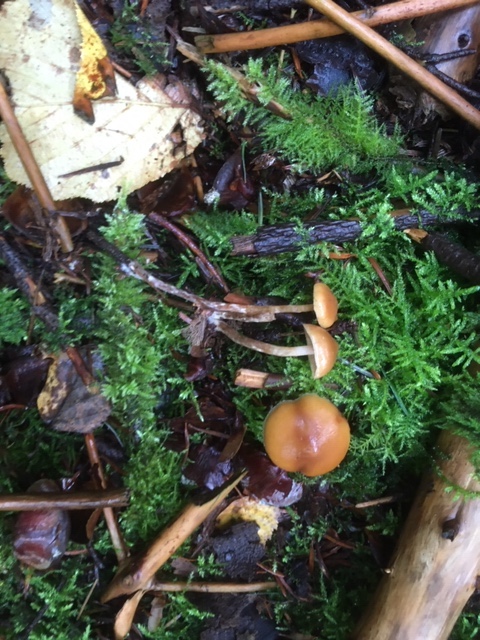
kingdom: Fungi
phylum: Basidiomycota
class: Agaricomycetes
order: Agaricales
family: Hymenogastraceae
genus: Galerina
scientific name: Galerina sideroides
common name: træflis-hjelmhat
